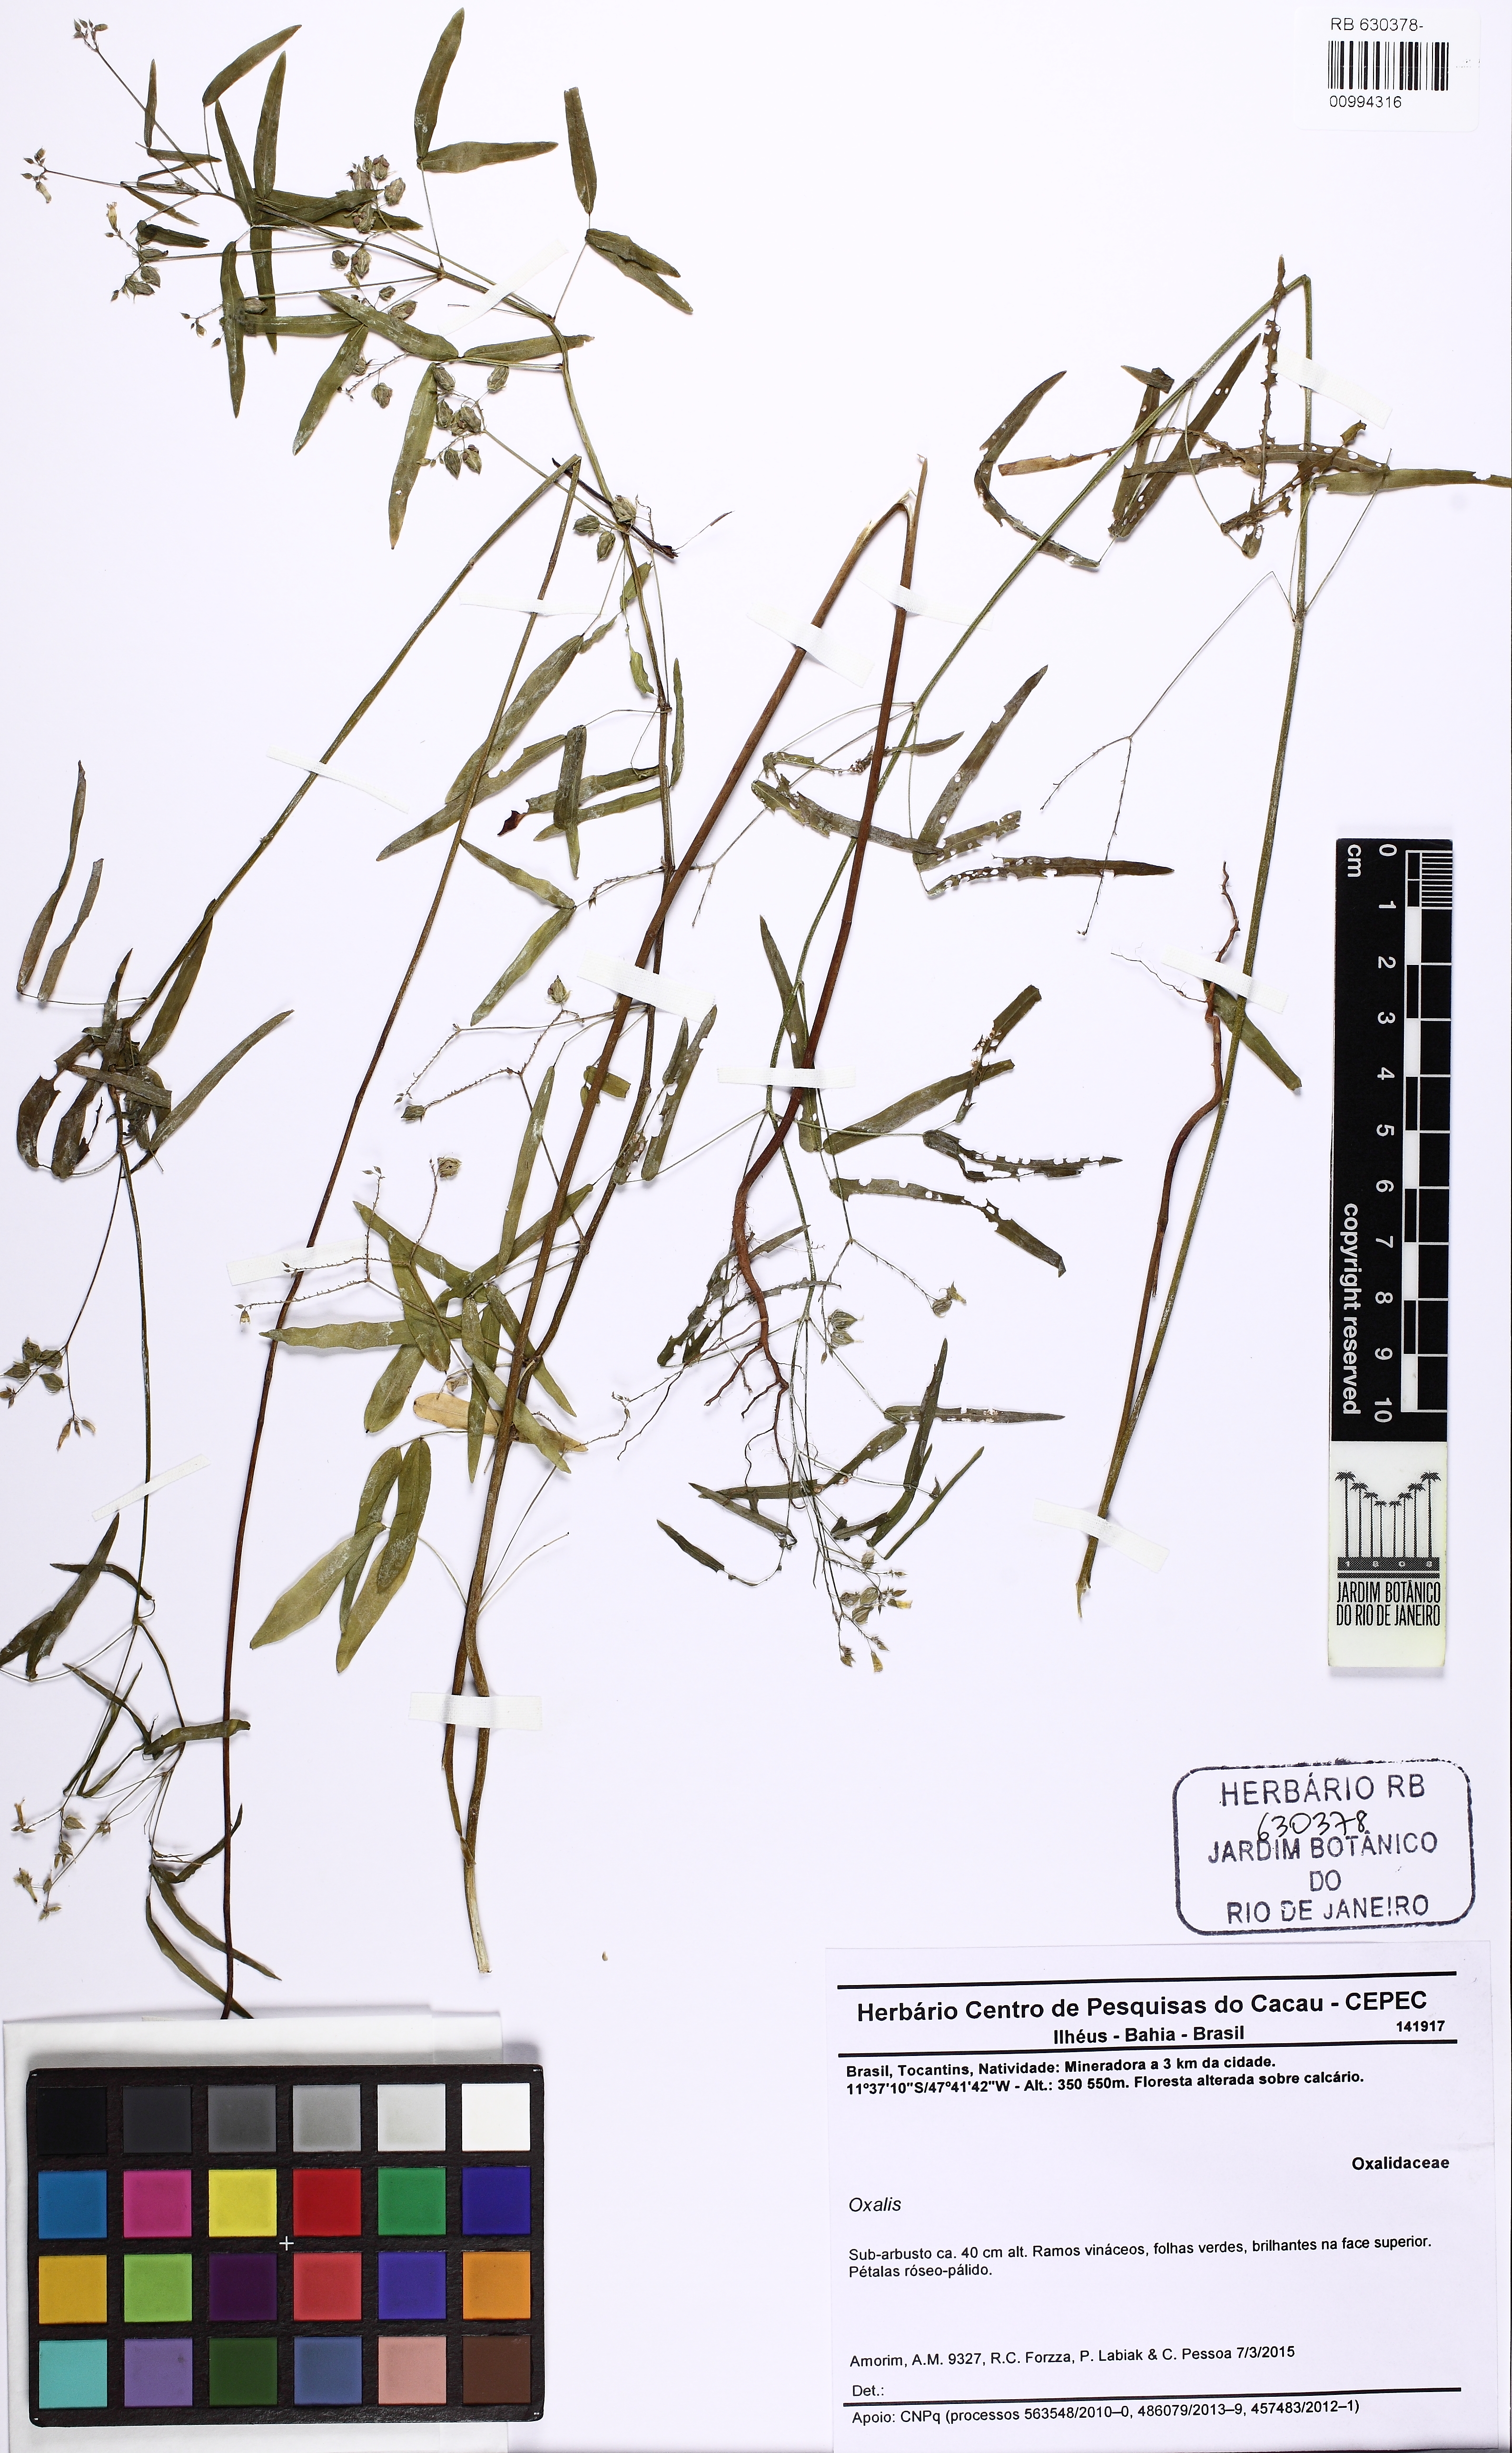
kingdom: Plantae
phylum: Tracheophyta
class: Magnoliopsida
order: Oxalidales
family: Oxalidaceae
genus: Oxalis
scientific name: Oxalis nigrescens
